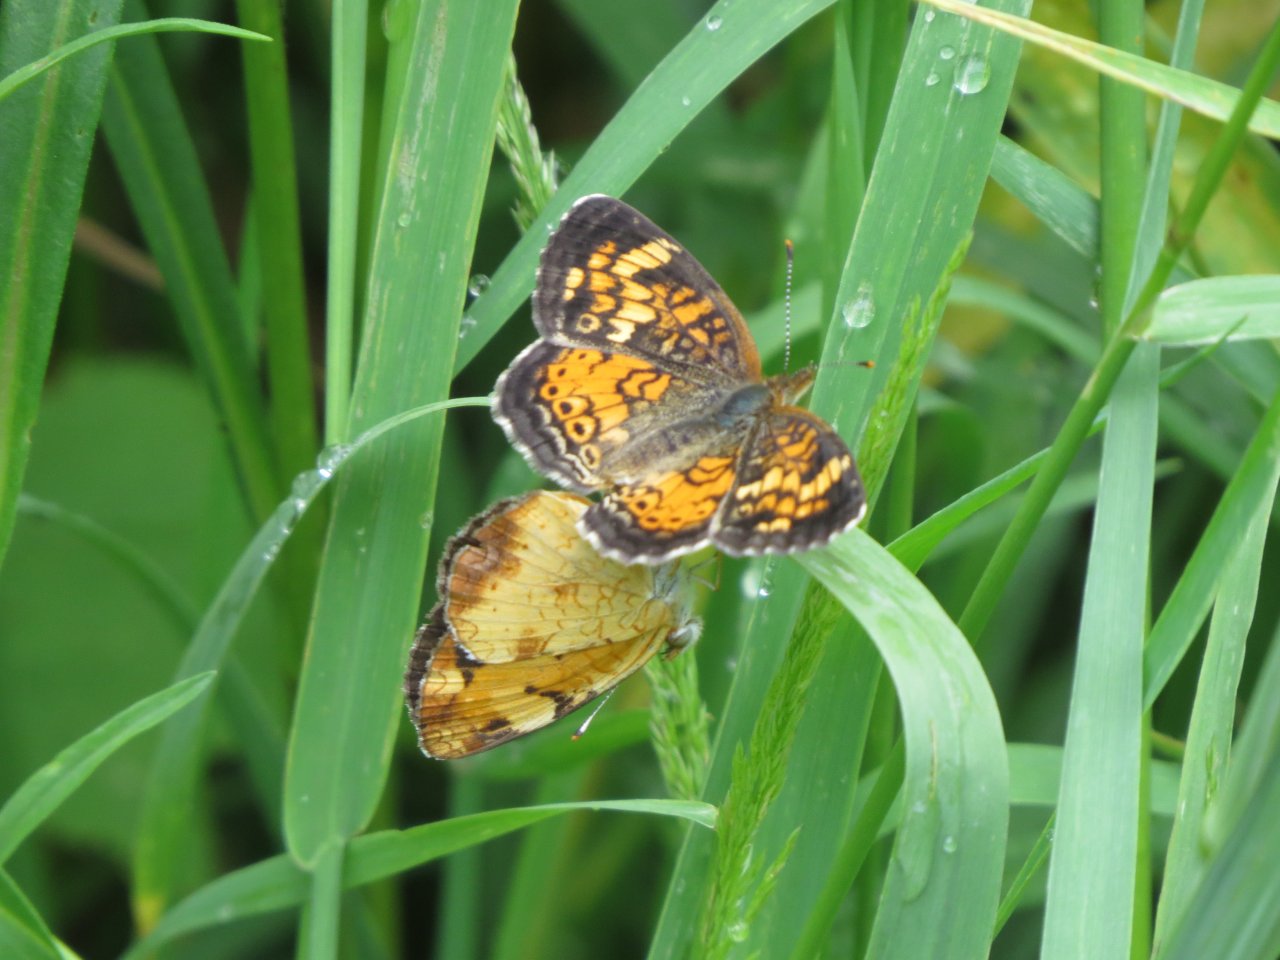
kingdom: Animalia
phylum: Arthropoda
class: Insecta
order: Lepidoptera
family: Nymphalidae
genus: Phyciodes
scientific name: Phyciodes tharos
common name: Northern Crescent
